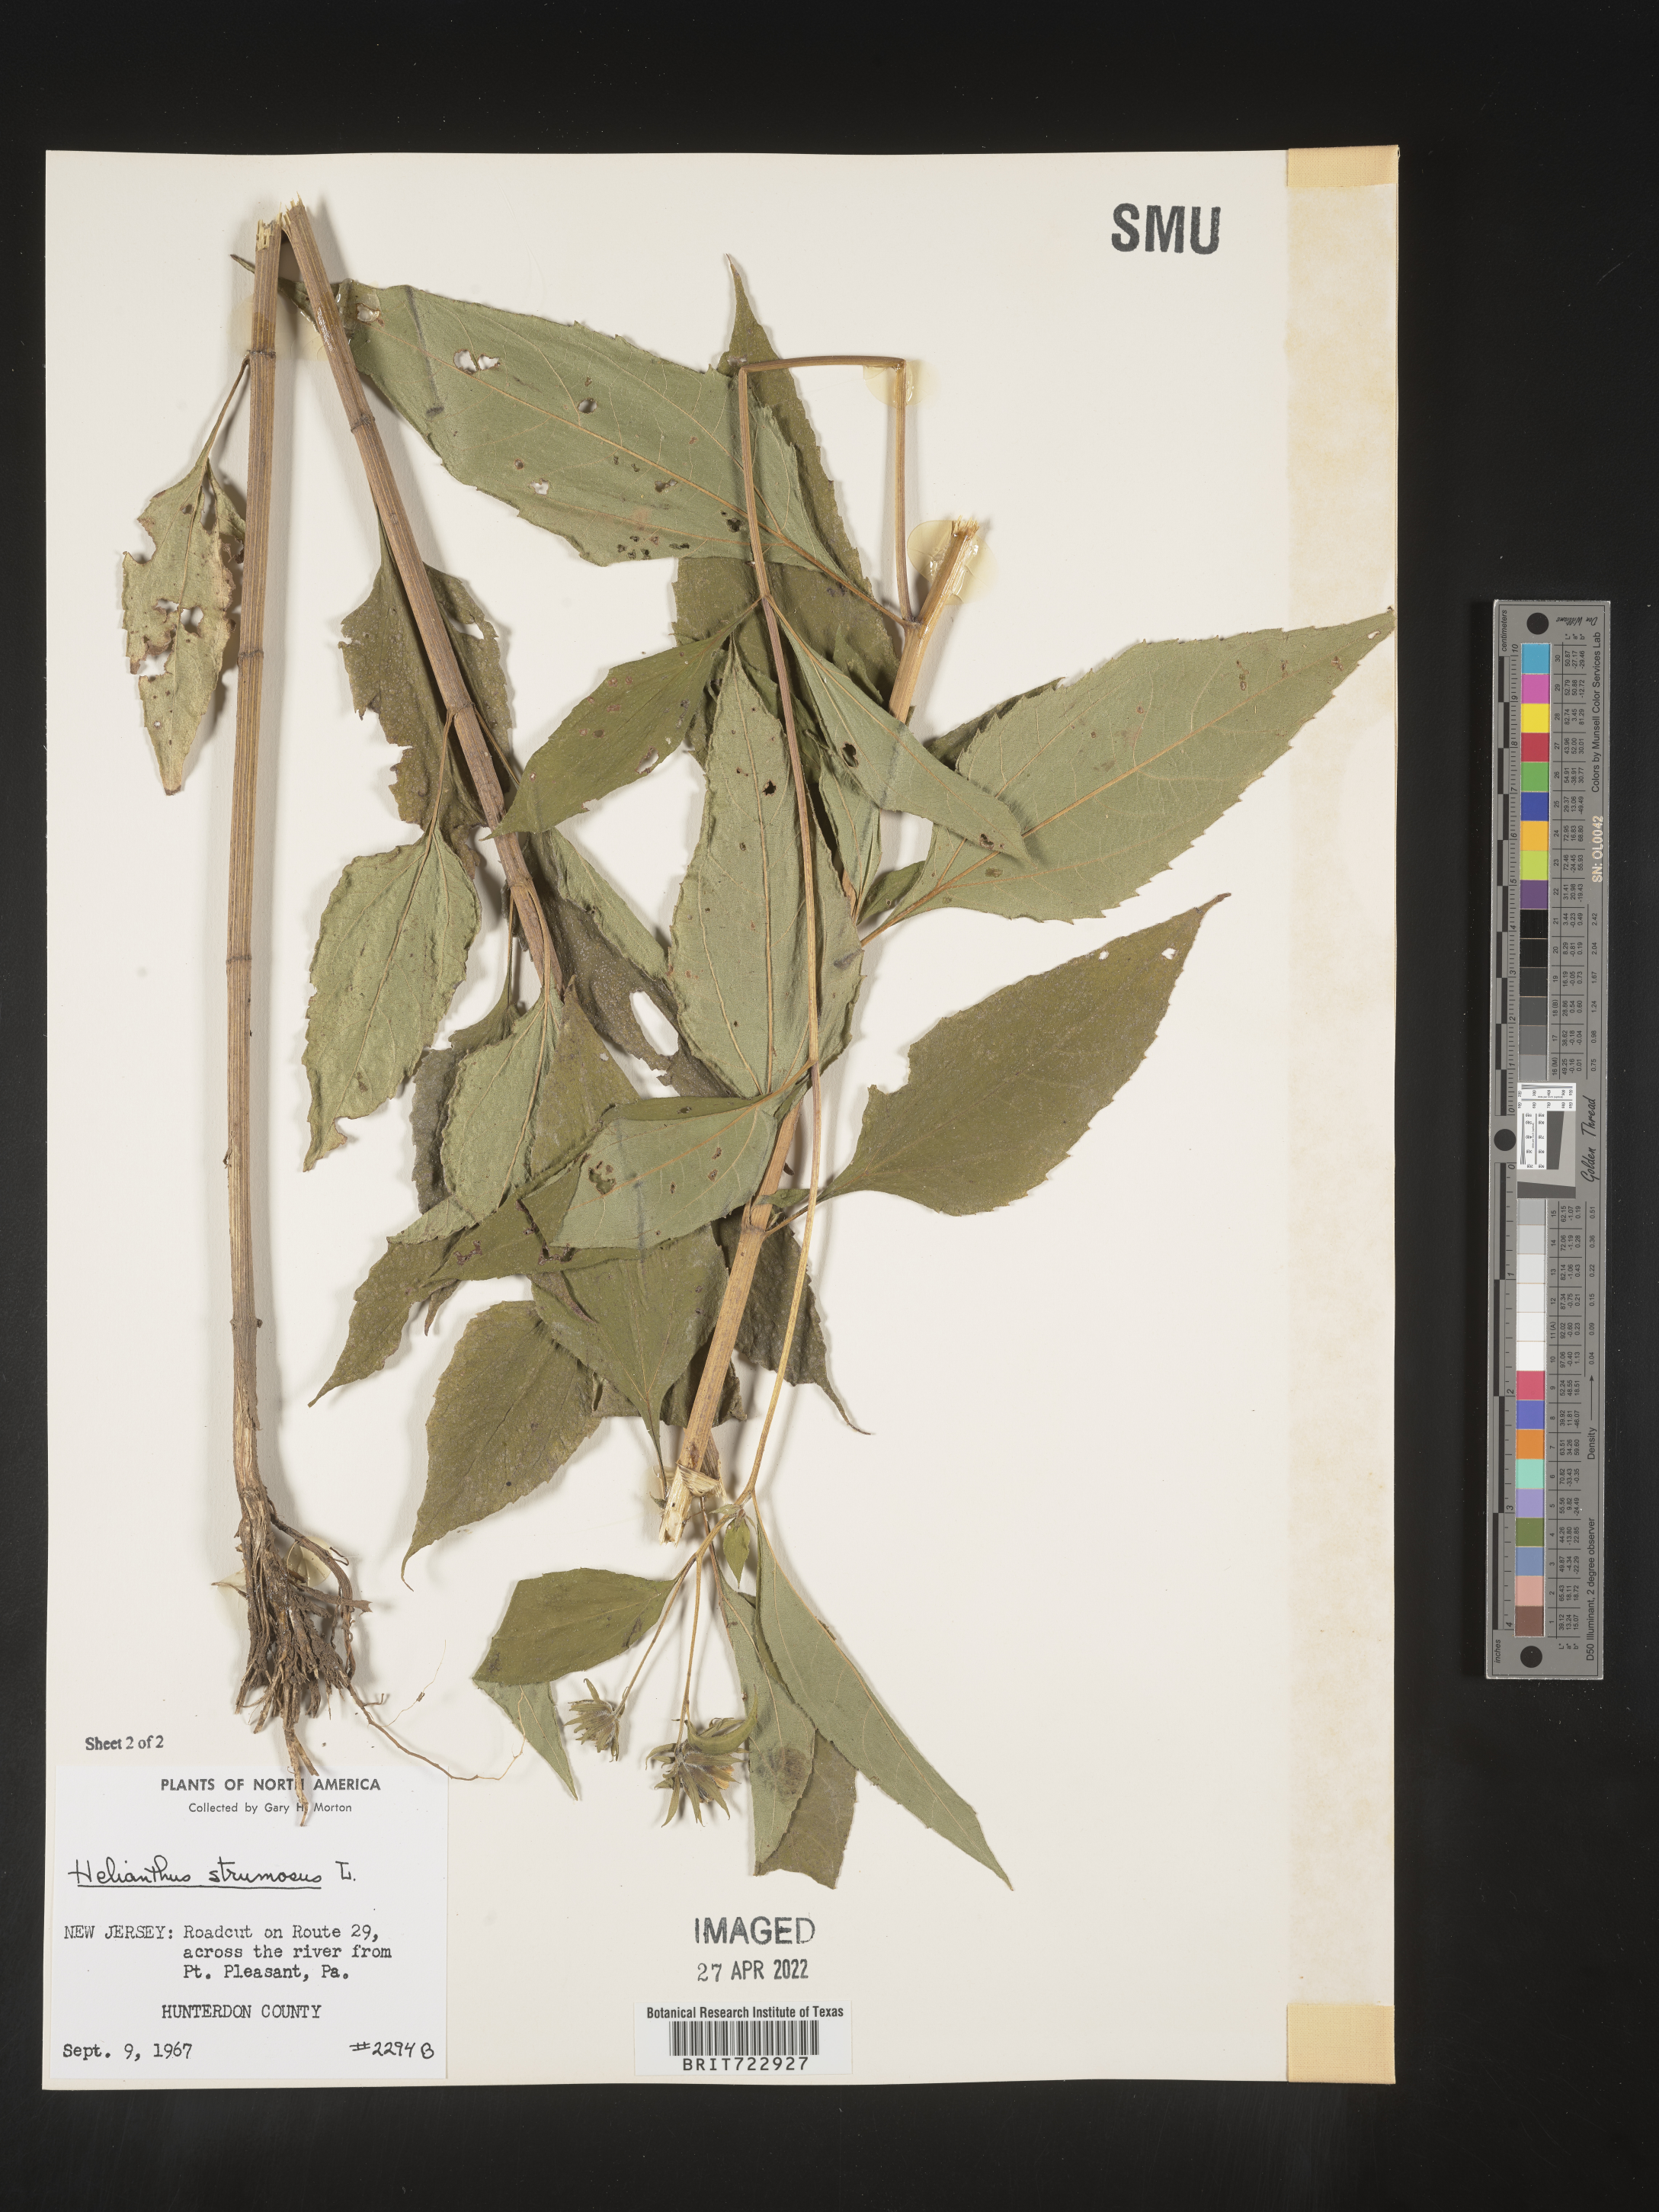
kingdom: Plantae
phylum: Tracheophyta
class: Magnoliopsida
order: Asterales
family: Asteraceae
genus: Helianthus
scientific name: Helianthus strumosus
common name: Pale-leaved sunflower
